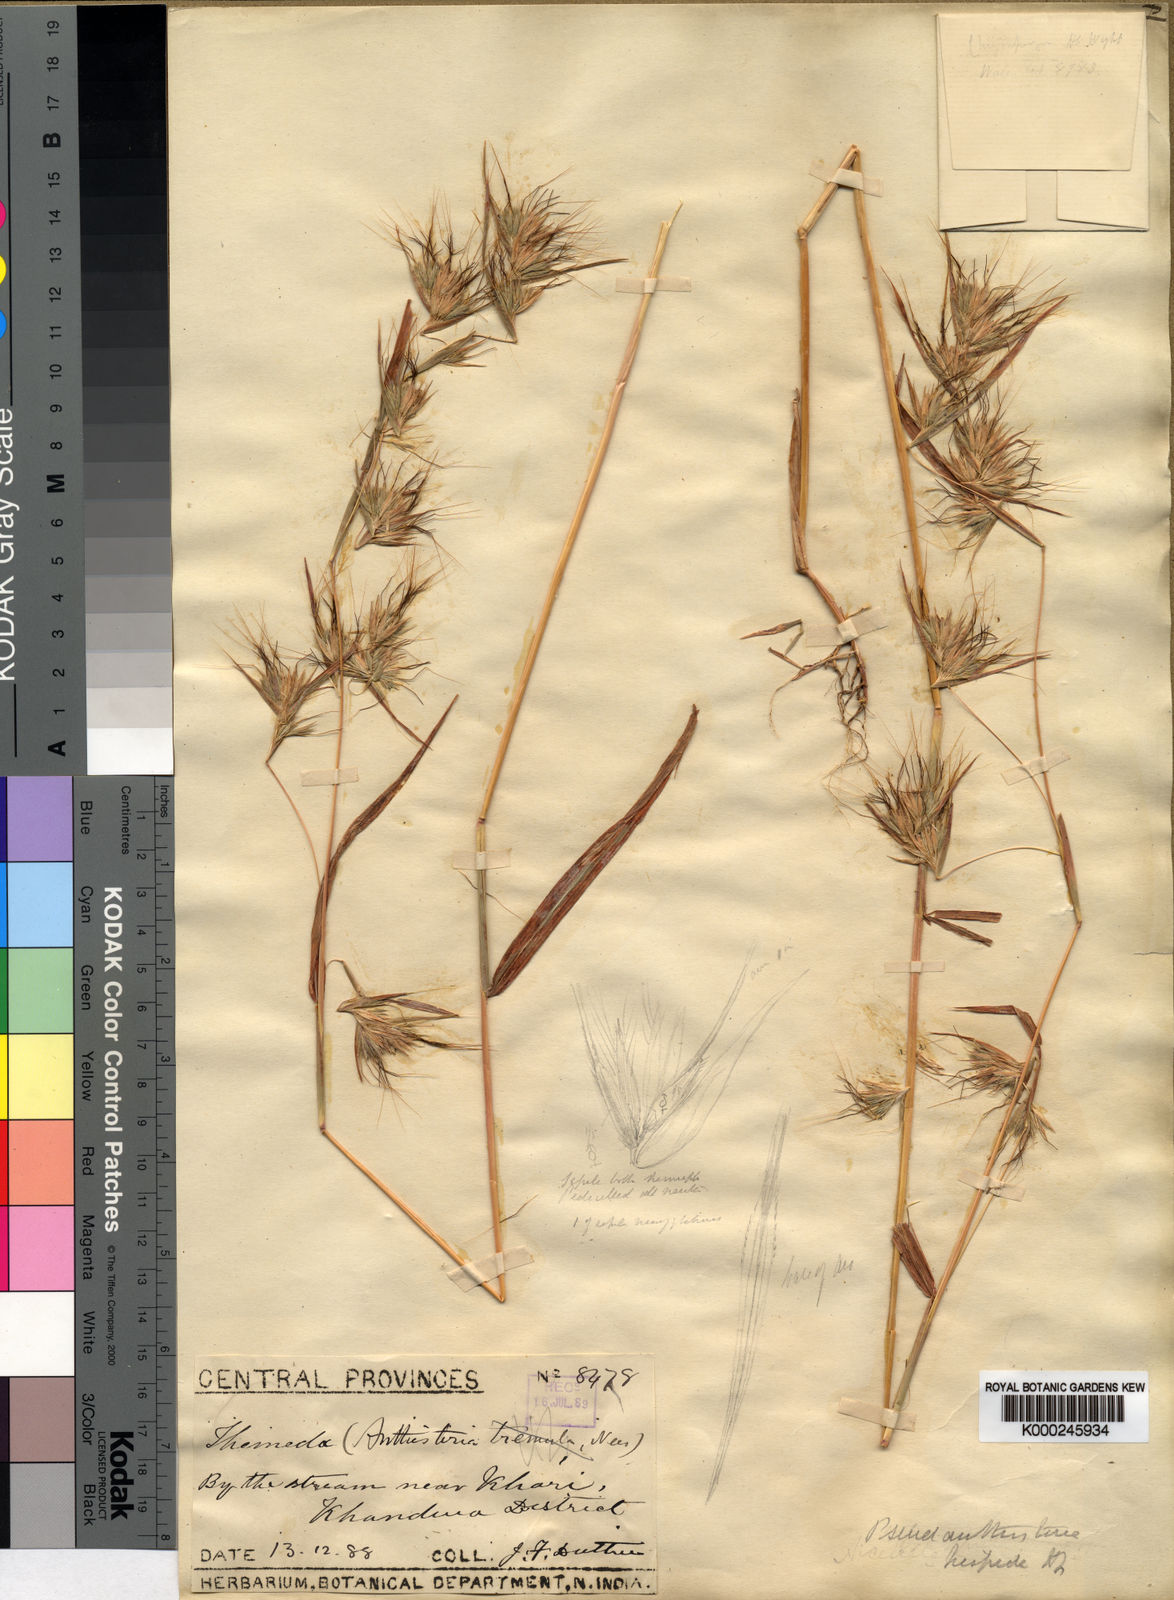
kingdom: Plantae
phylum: Tracheophyta
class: Liliopsida
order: Poales
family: Poaceae
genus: Pseudanthistiria
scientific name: Pseudanthistiria heteroclita
